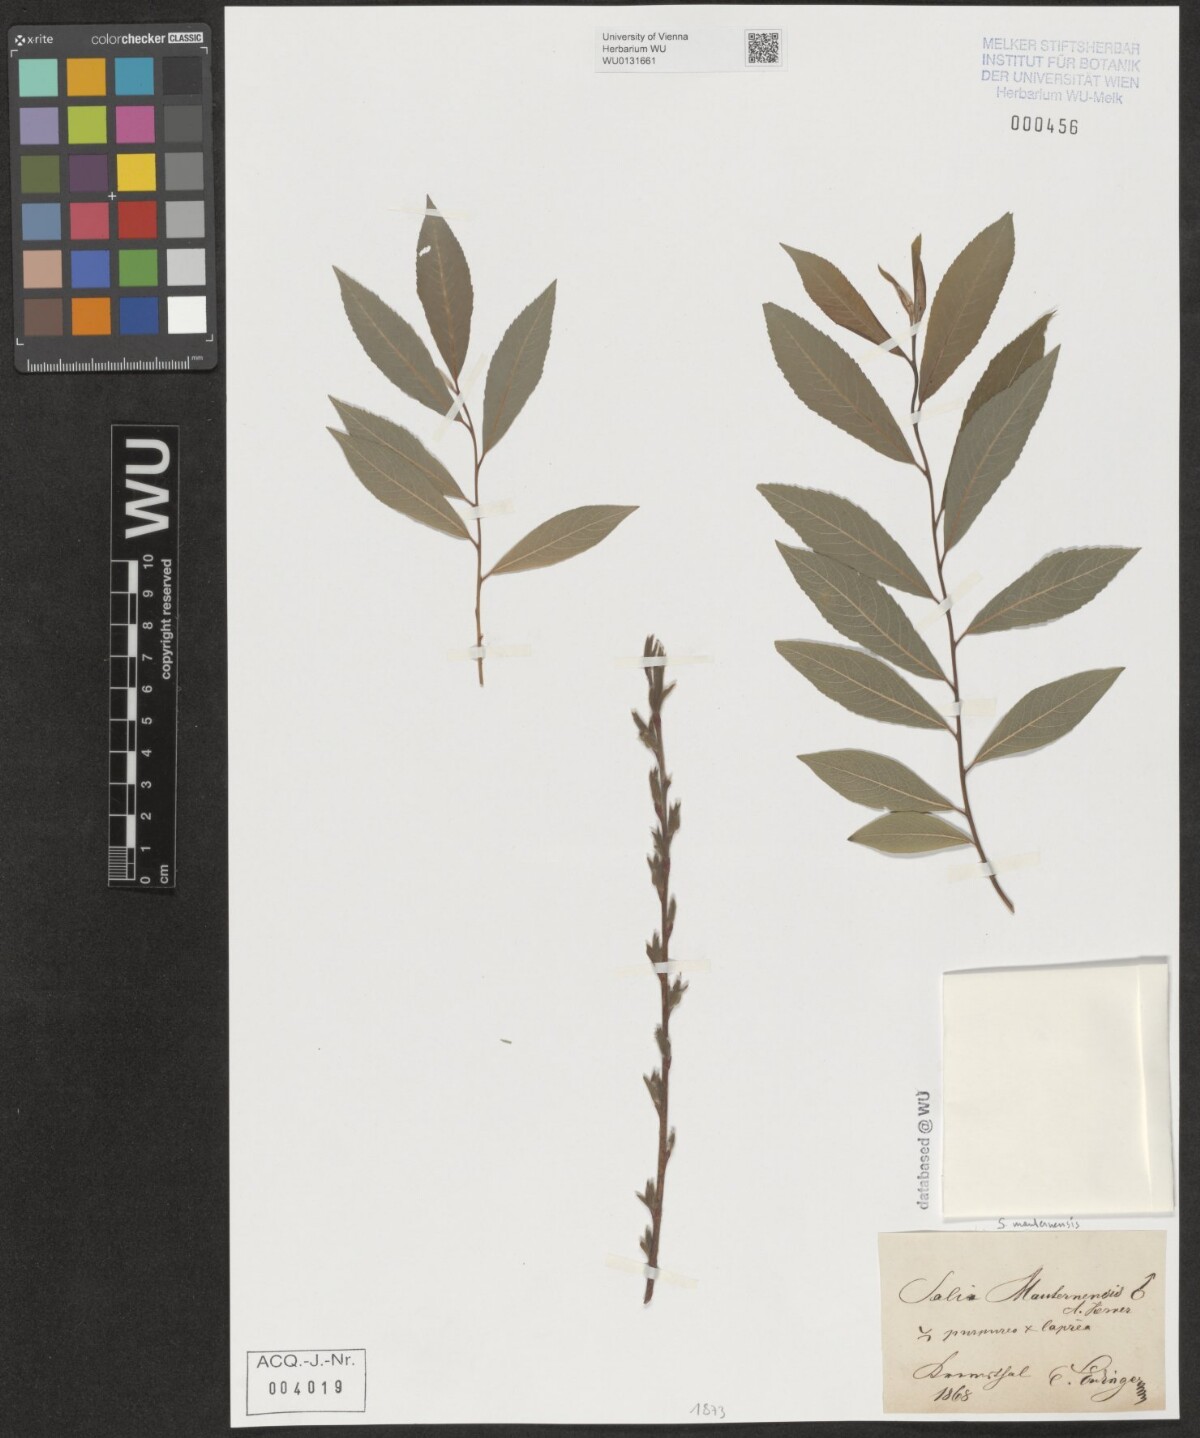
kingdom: Plantae
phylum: Tracheophyta
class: Magnoliopsida
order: Malpighiales
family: Salicaceae
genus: Salix
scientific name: Salix wimmeriana
